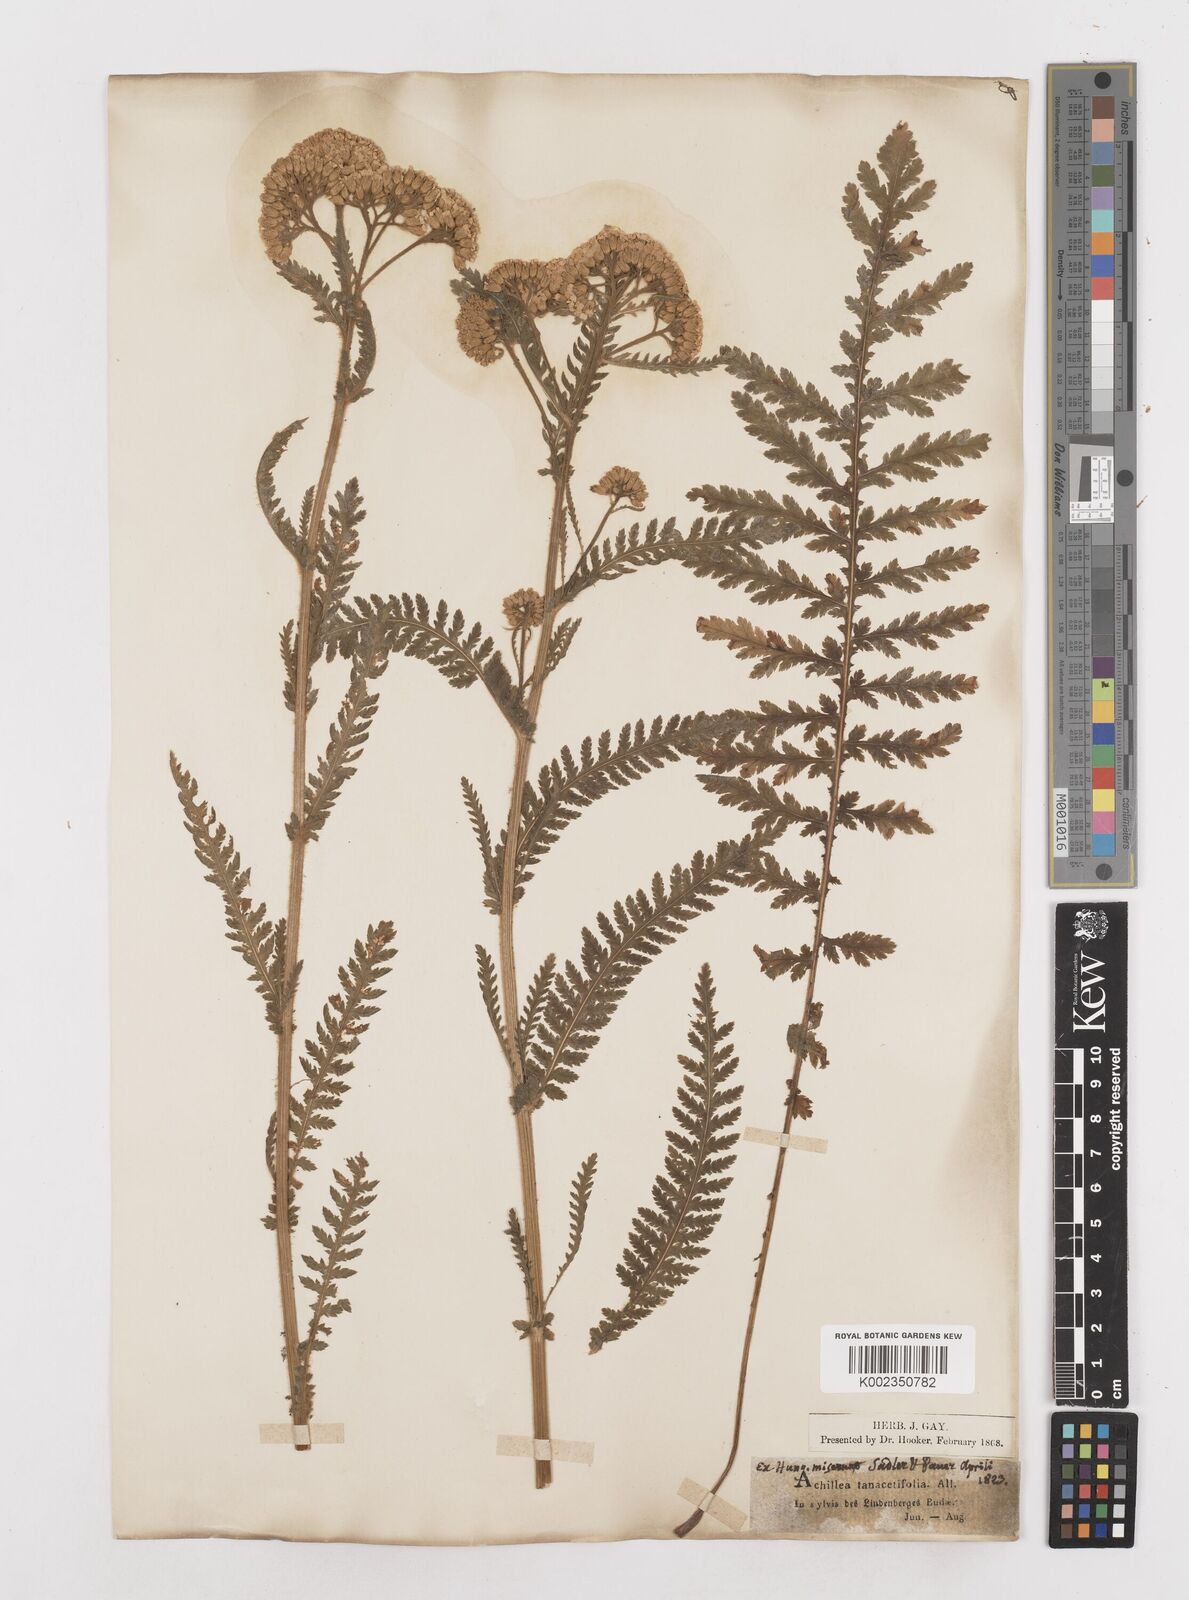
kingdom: Plantae
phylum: Tracheophyta
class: Magnoliopsida
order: Asterales
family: Asteraceae
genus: Achillea
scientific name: Achillea distans
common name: Tall yarrow
